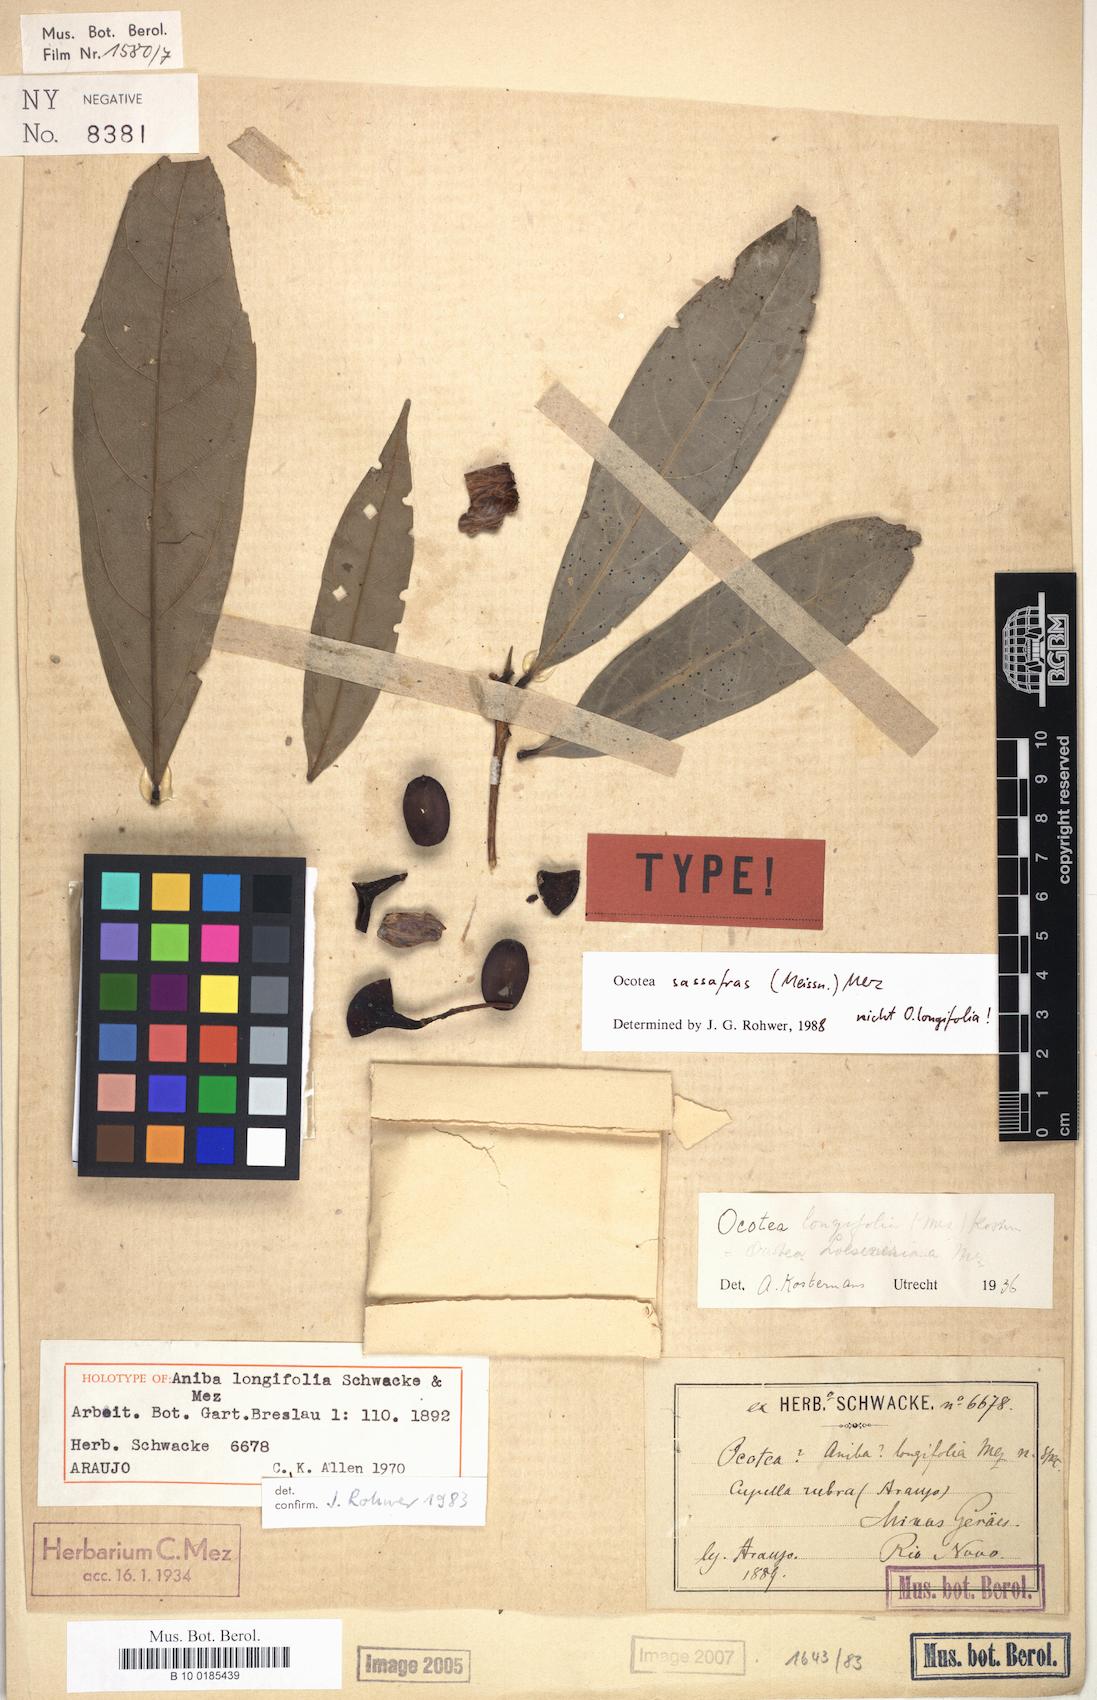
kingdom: Plantae
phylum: Tracheophyta
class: Magnoliopsida
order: Laurales
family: Lauraceae
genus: Mespilodaphne
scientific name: Mespilodaphne sassafras
